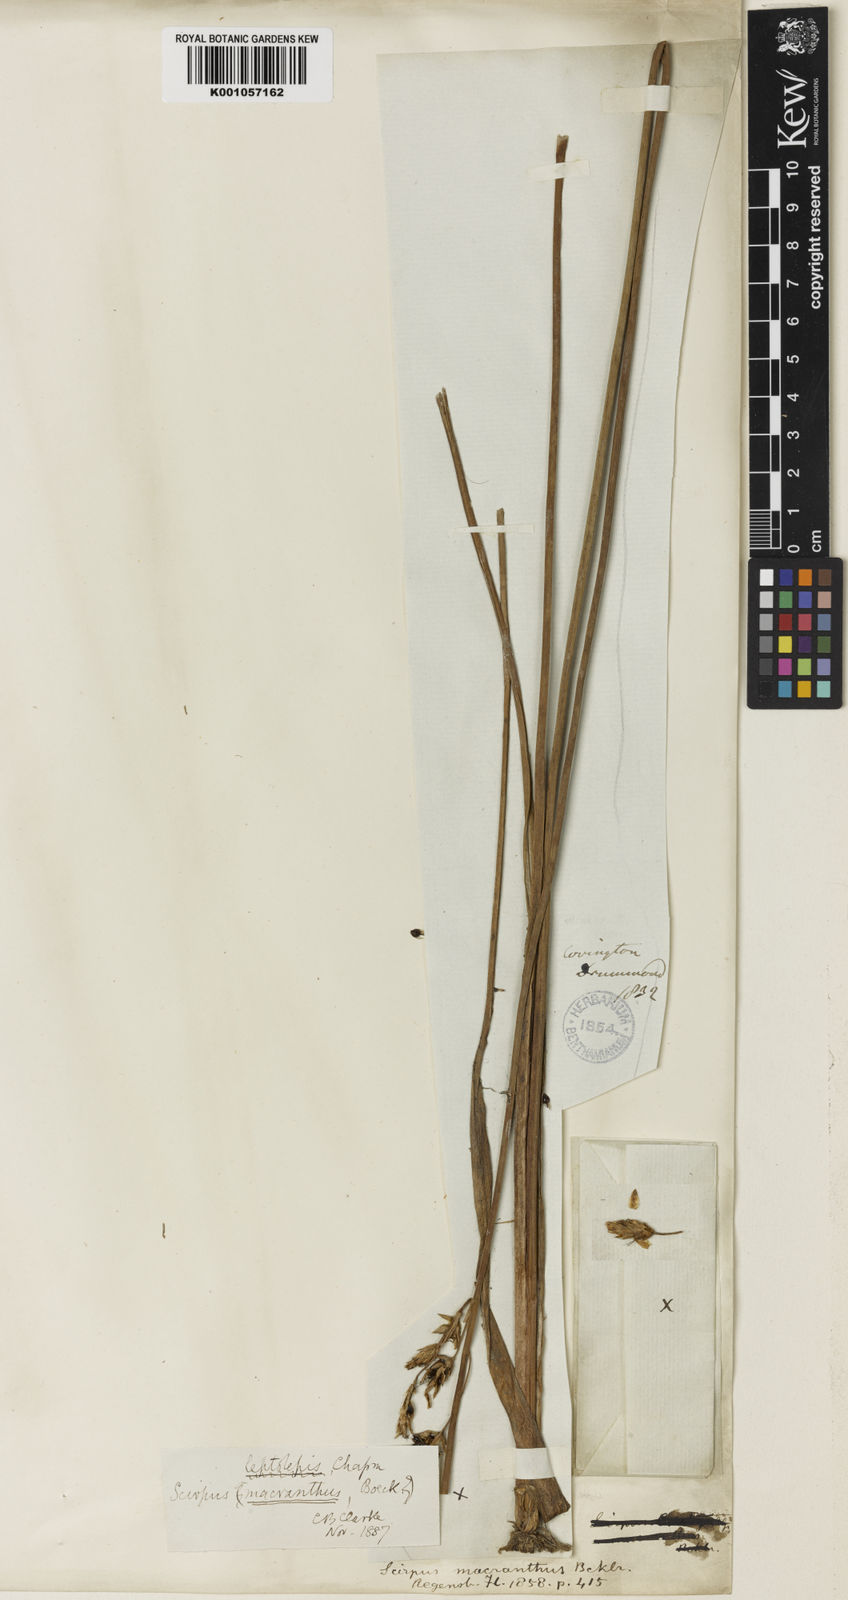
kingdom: Plantae
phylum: Tracheophyta
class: Liliopsida
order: Poales
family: Cyperaceae
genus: Schoenoplectus
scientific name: Schoenoplectus
